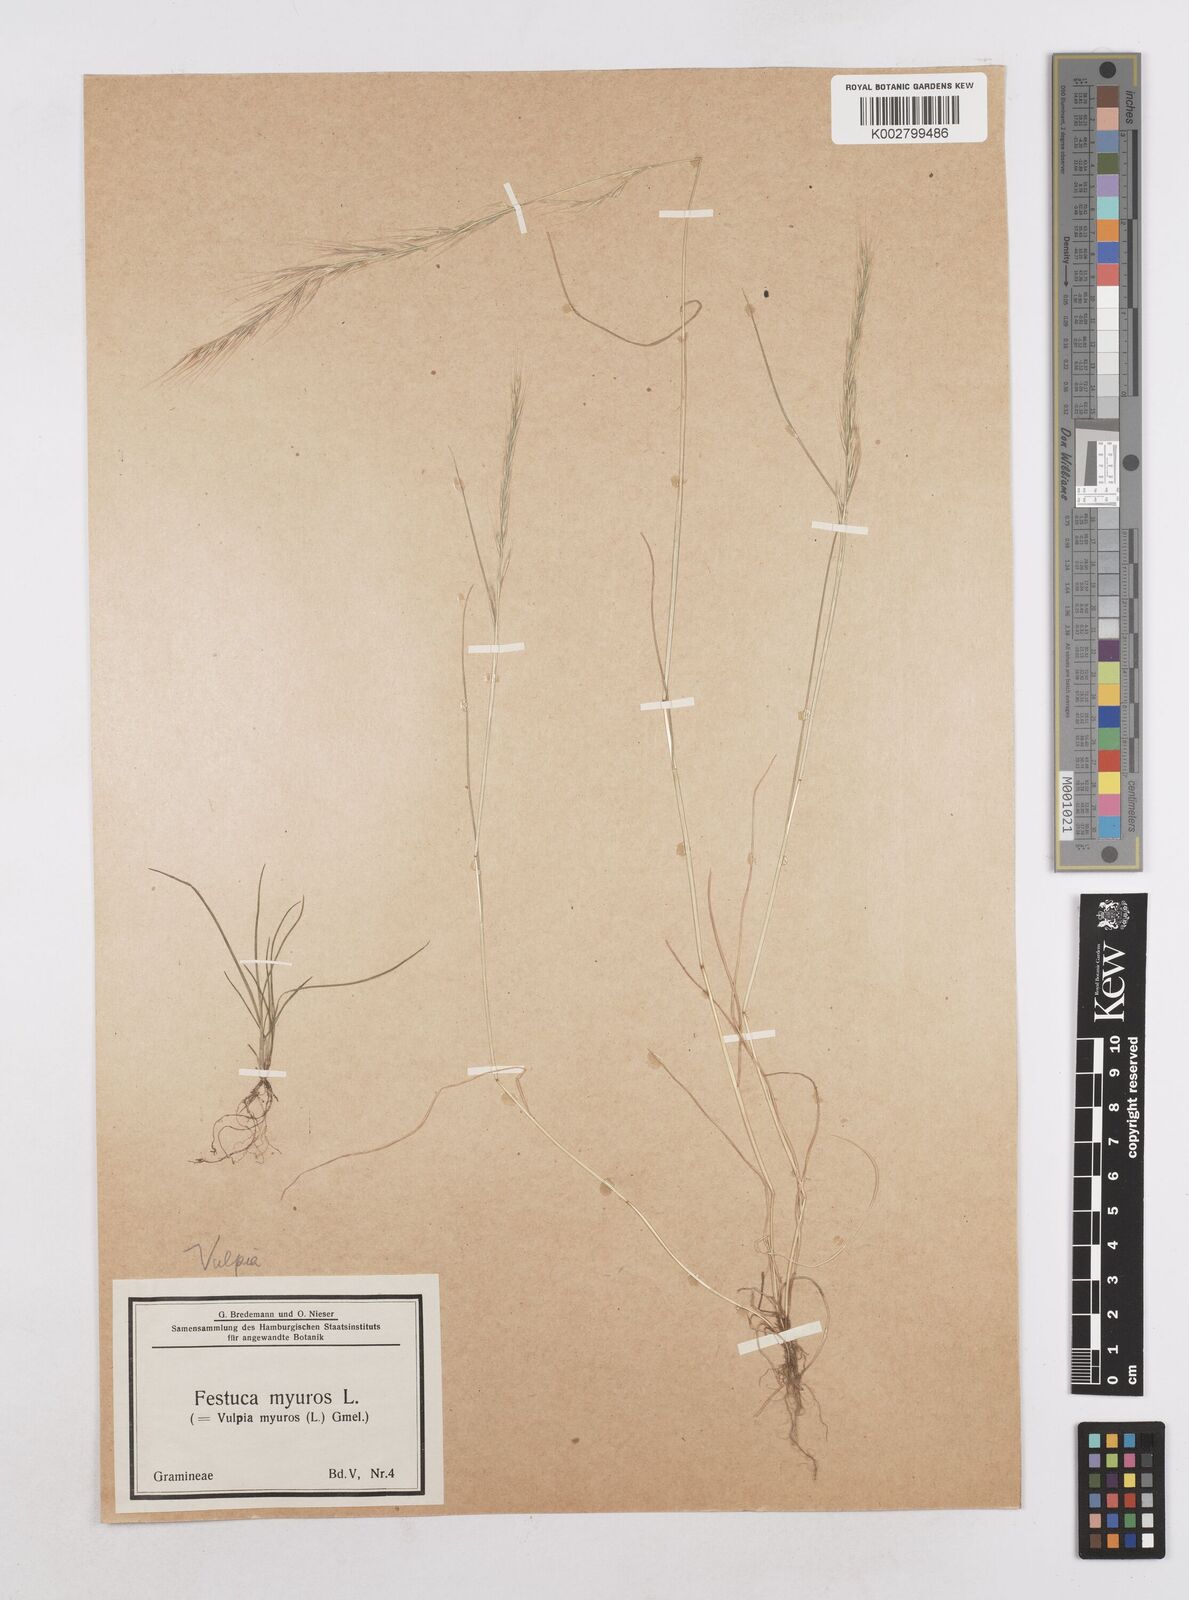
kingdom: Plantae
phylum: Tracheophyta
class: Liliopsida
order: Poales
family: Poaceae
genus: Festuca
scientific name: Festuca myuros
